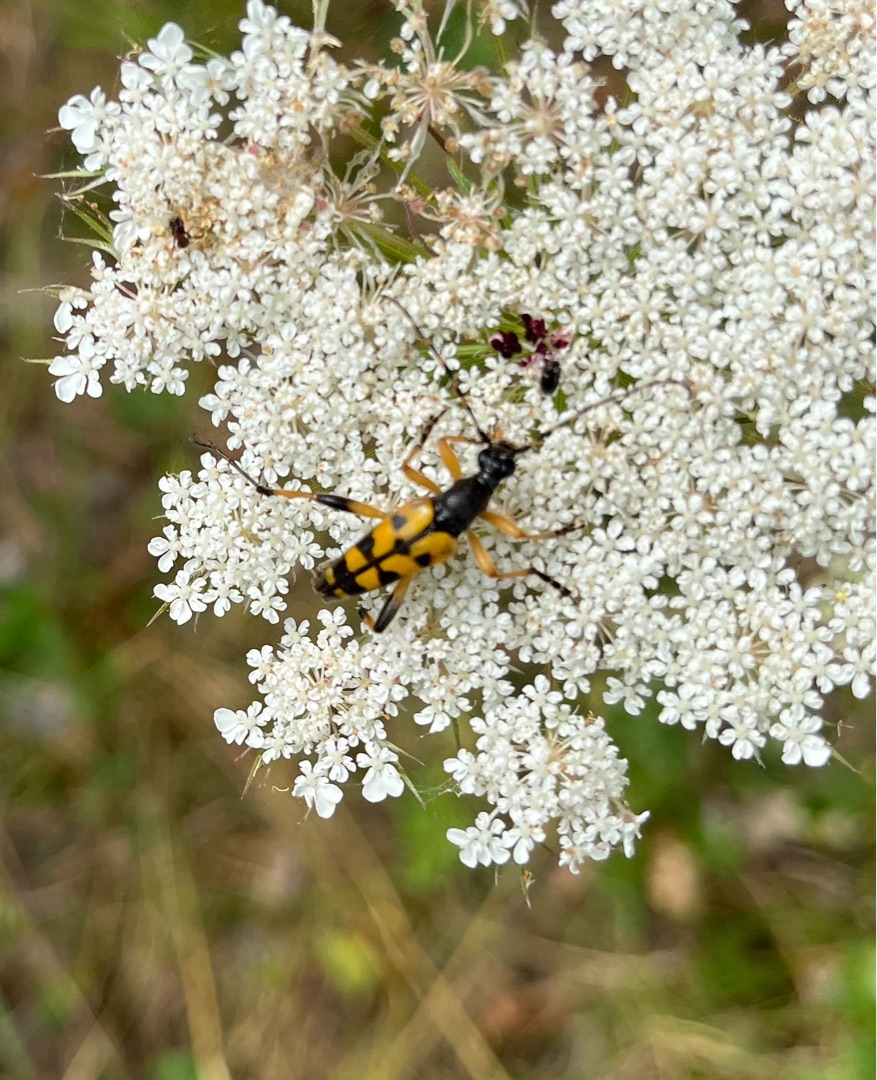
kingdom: Animalia
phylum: Arthropoda
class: Insecta
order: Coleoptera
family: Cerambycidae
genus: Rutpela
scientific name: Rutpela maculata
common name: Sydlig blomsterbuk
